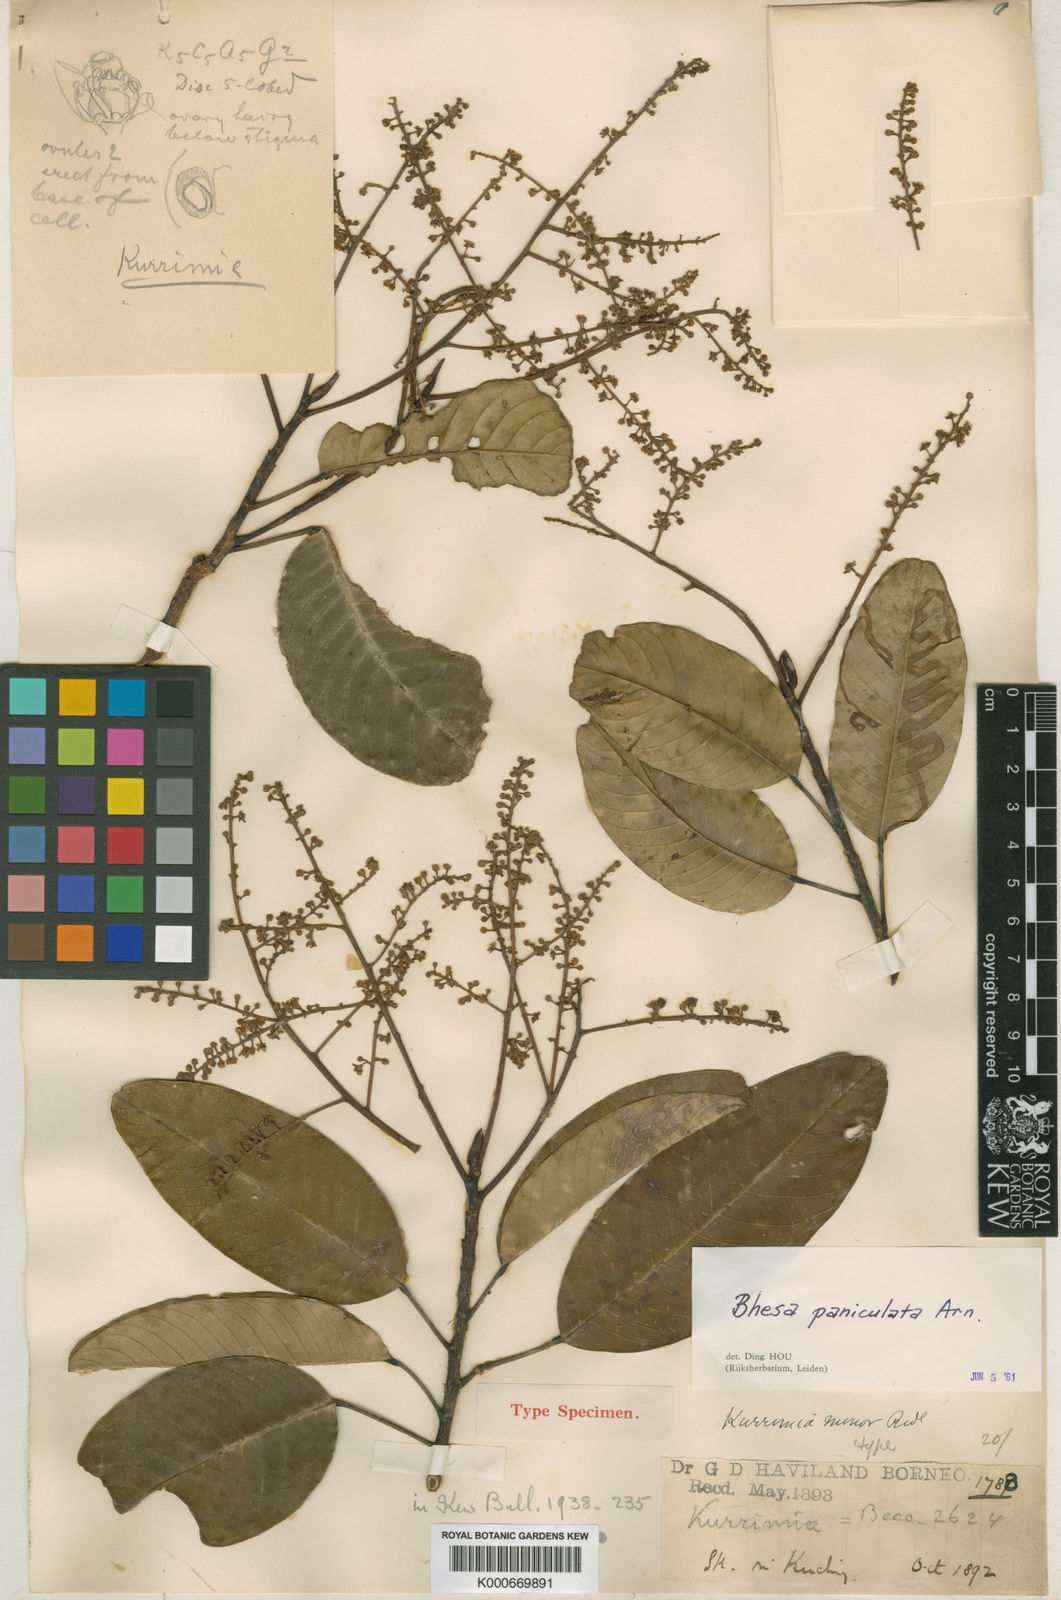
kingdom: Plantae
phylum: Tracheophyta
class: Magnoliopsida
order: Malpighiales
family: Centroplacaceae
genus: Bhesa
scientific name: Bhesa paniculata
